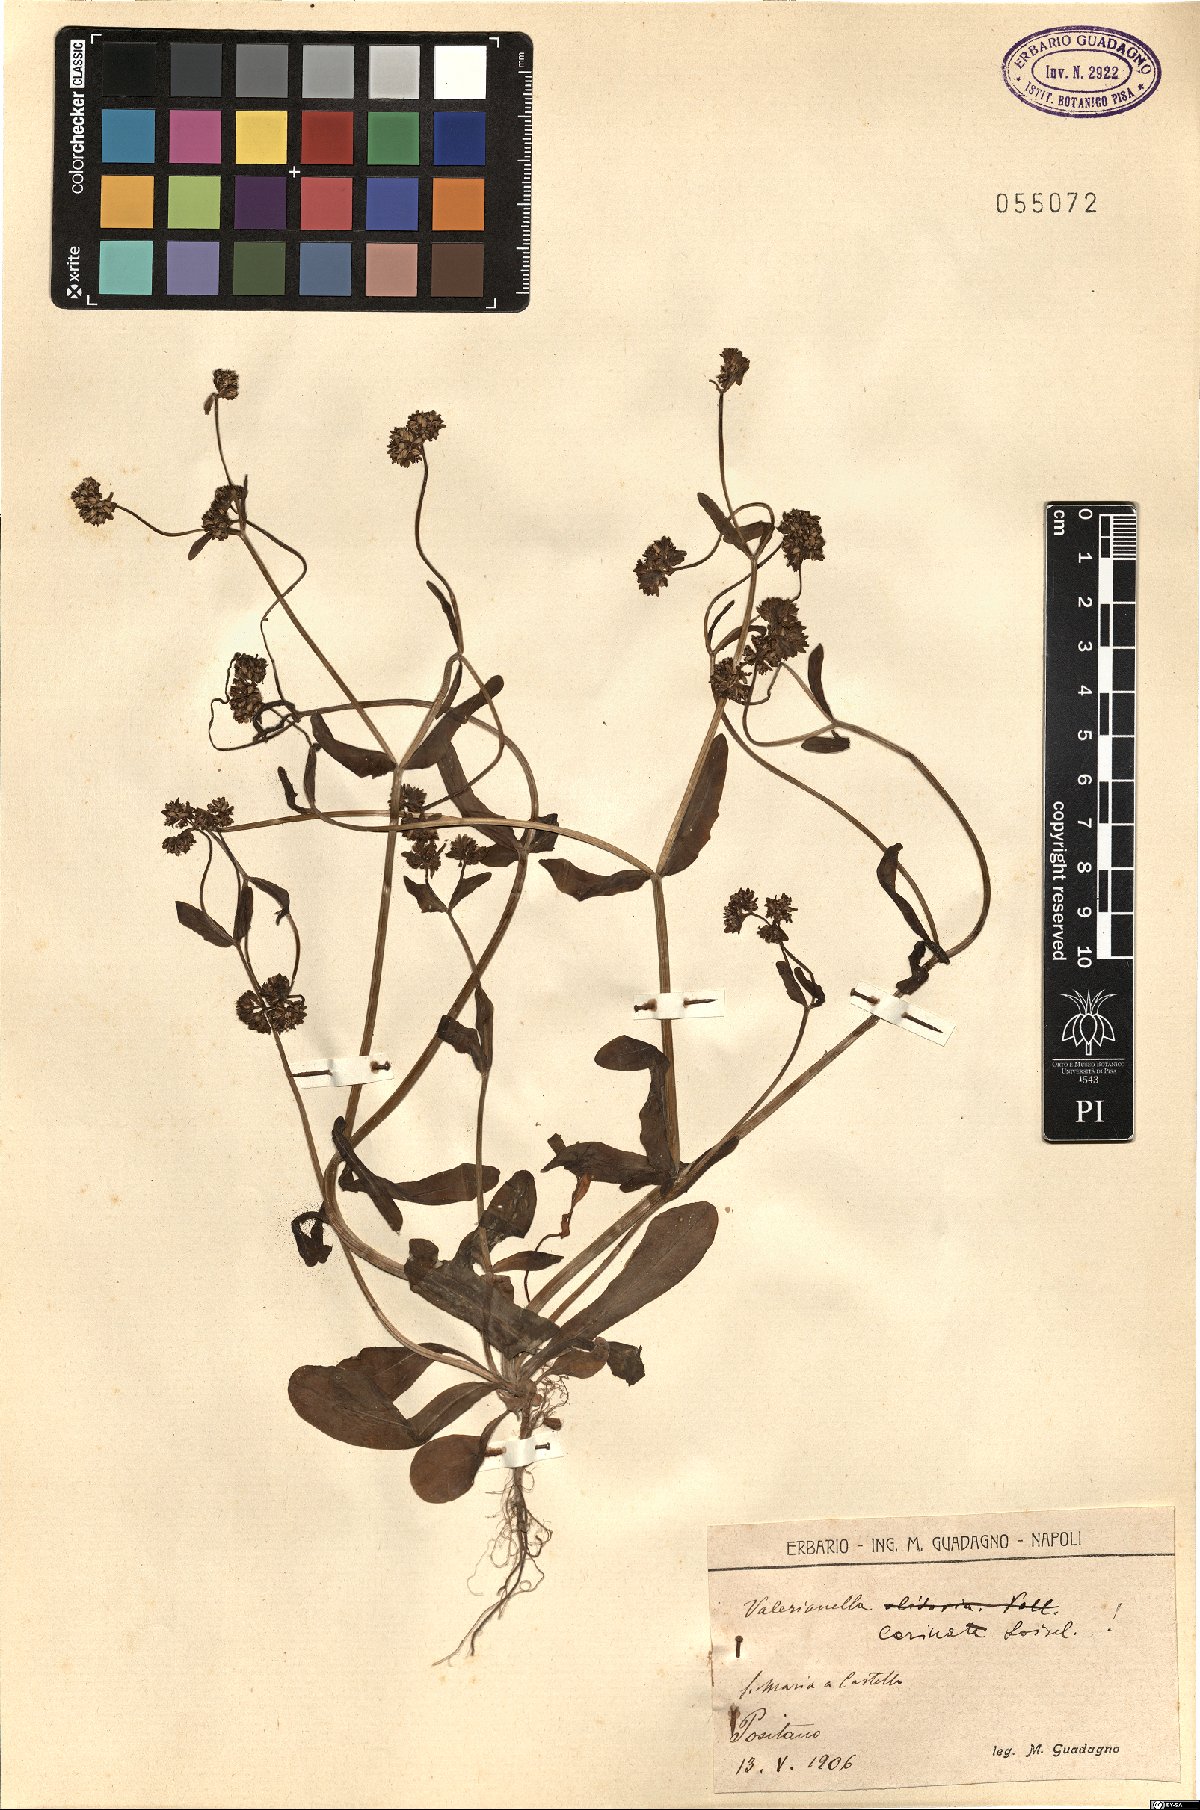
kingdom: Plantae
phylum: Tracheophyta
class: Magnoliopsida
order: Dipsacales
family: Caprifoliaceae
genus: Valerianella
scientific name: Valerianella carinata
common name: Keeled-fruited cornsalad
